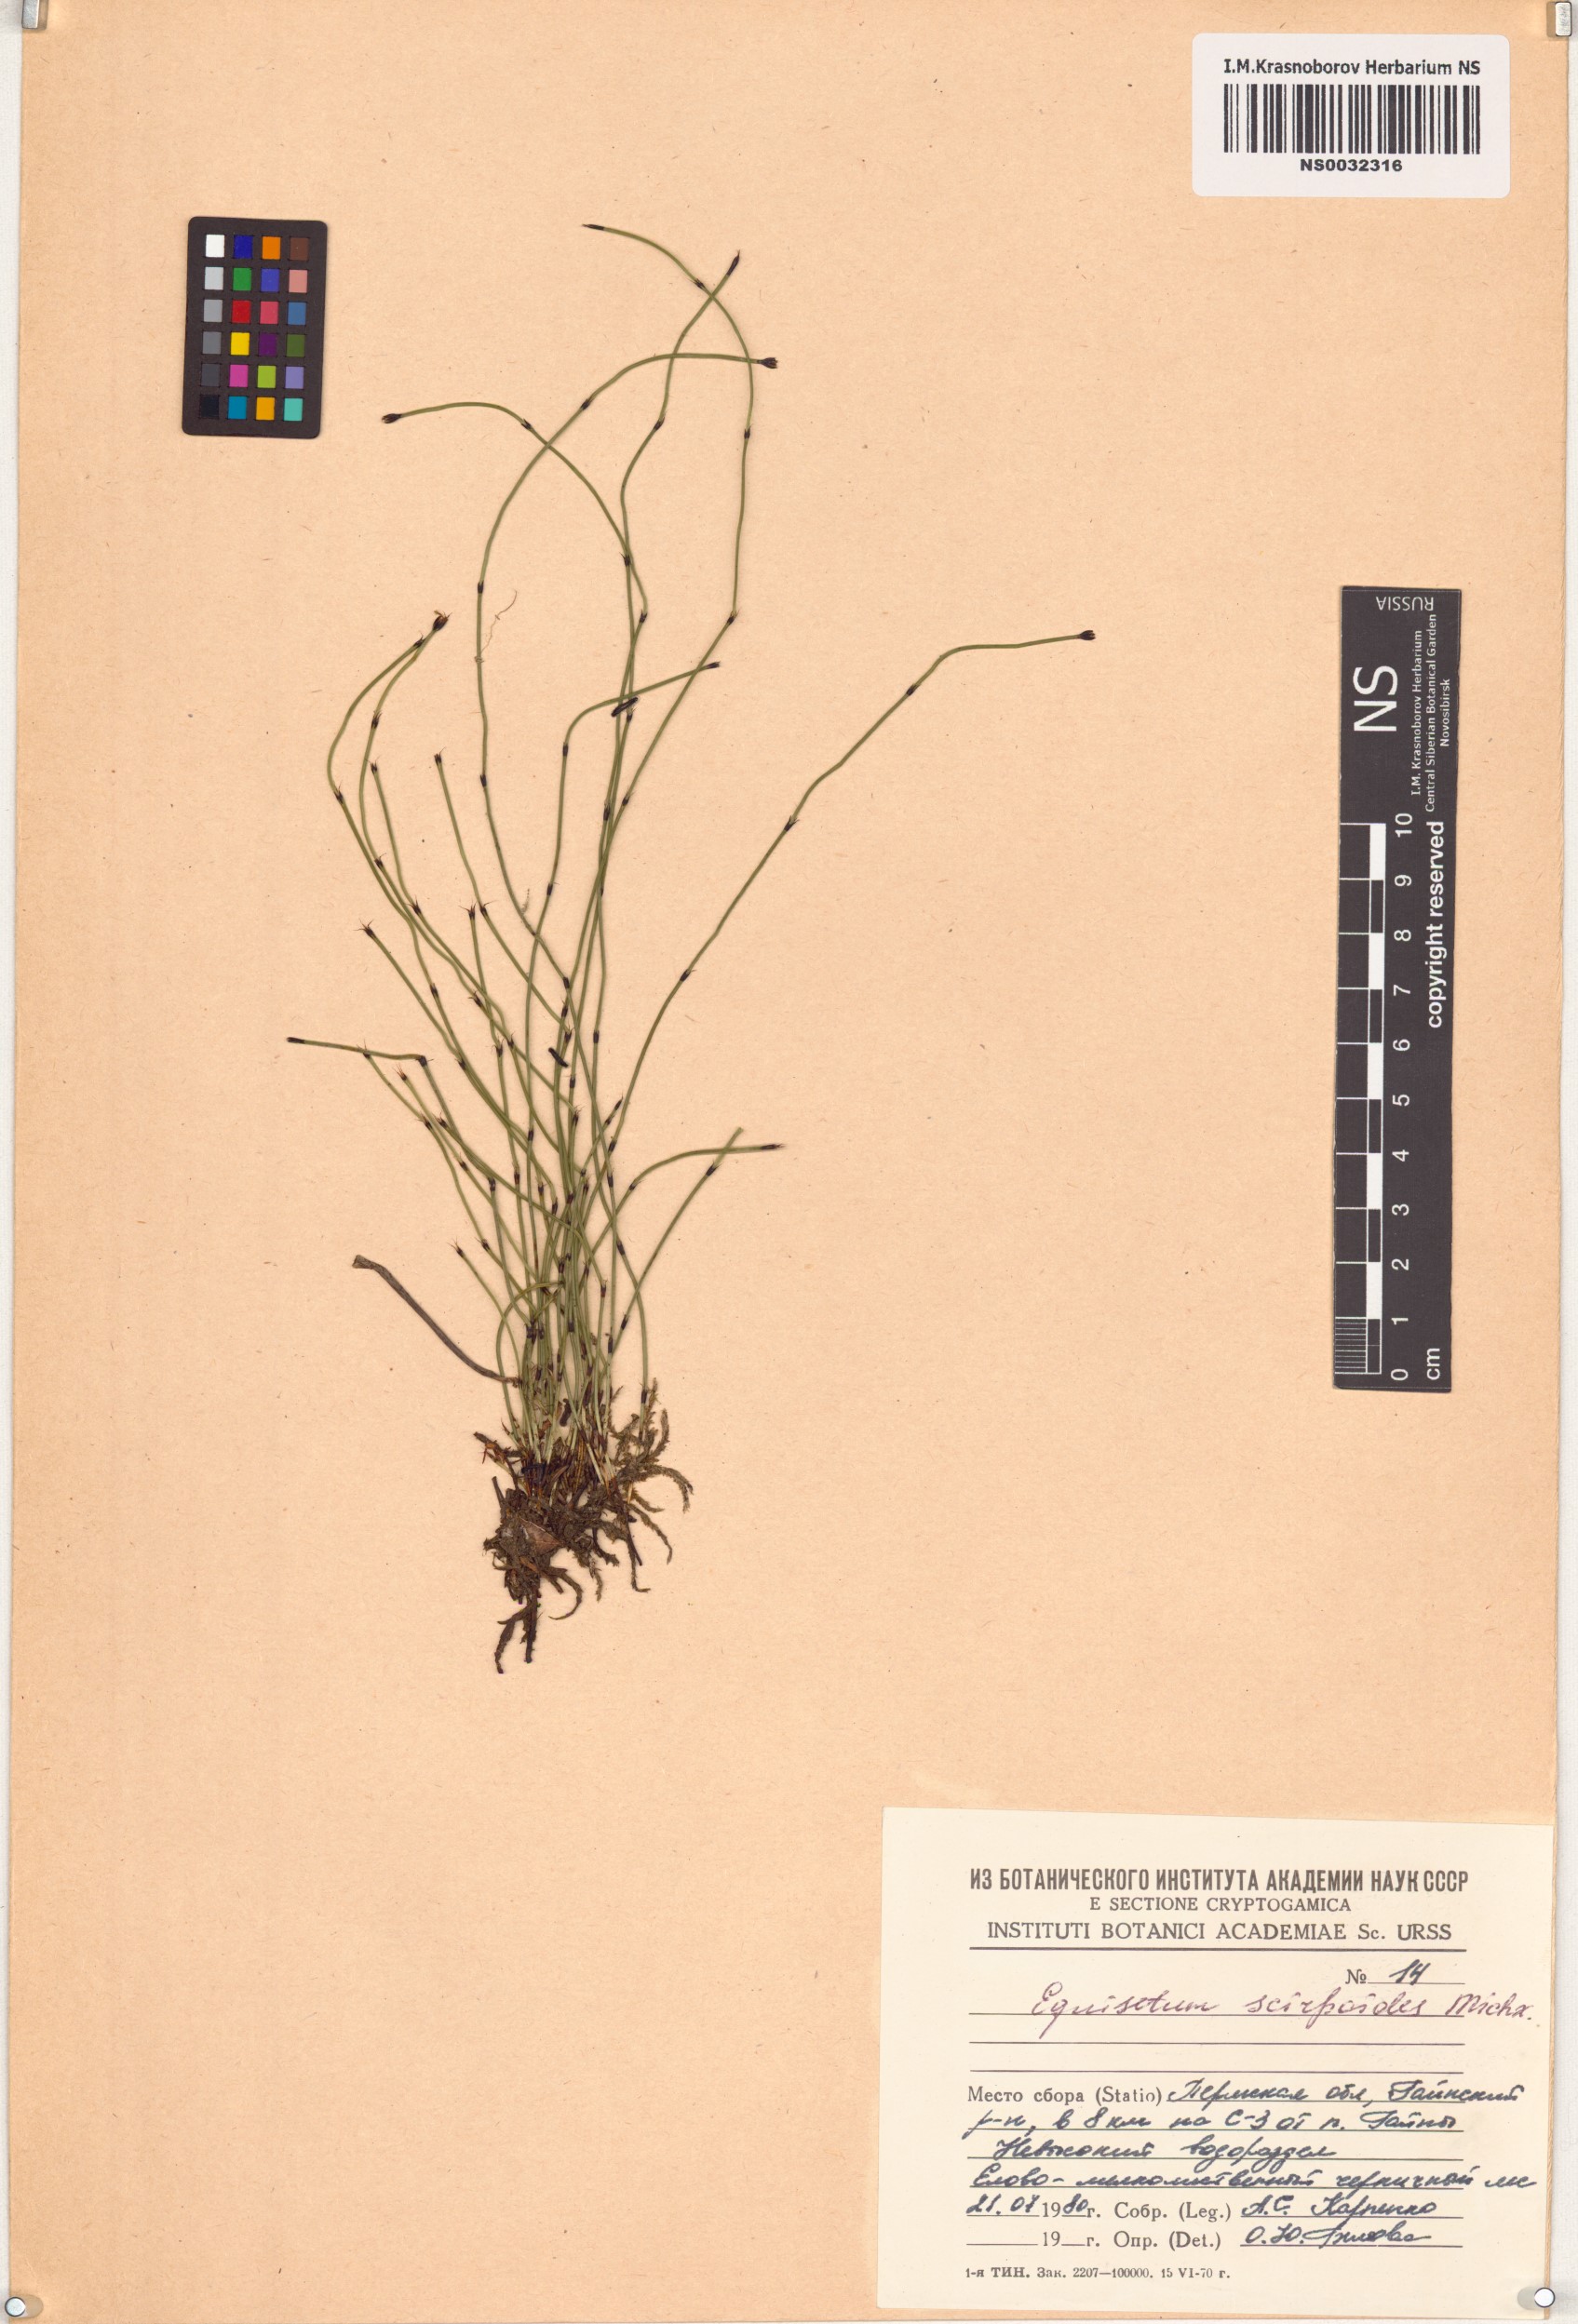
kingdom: Plantae
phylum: Tracheophyta
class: Polypodiopsida
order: Equisetales
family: Equisetaceae
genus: Equisetum
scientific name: Equisetum scirpoides
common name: Delicate horsetail
